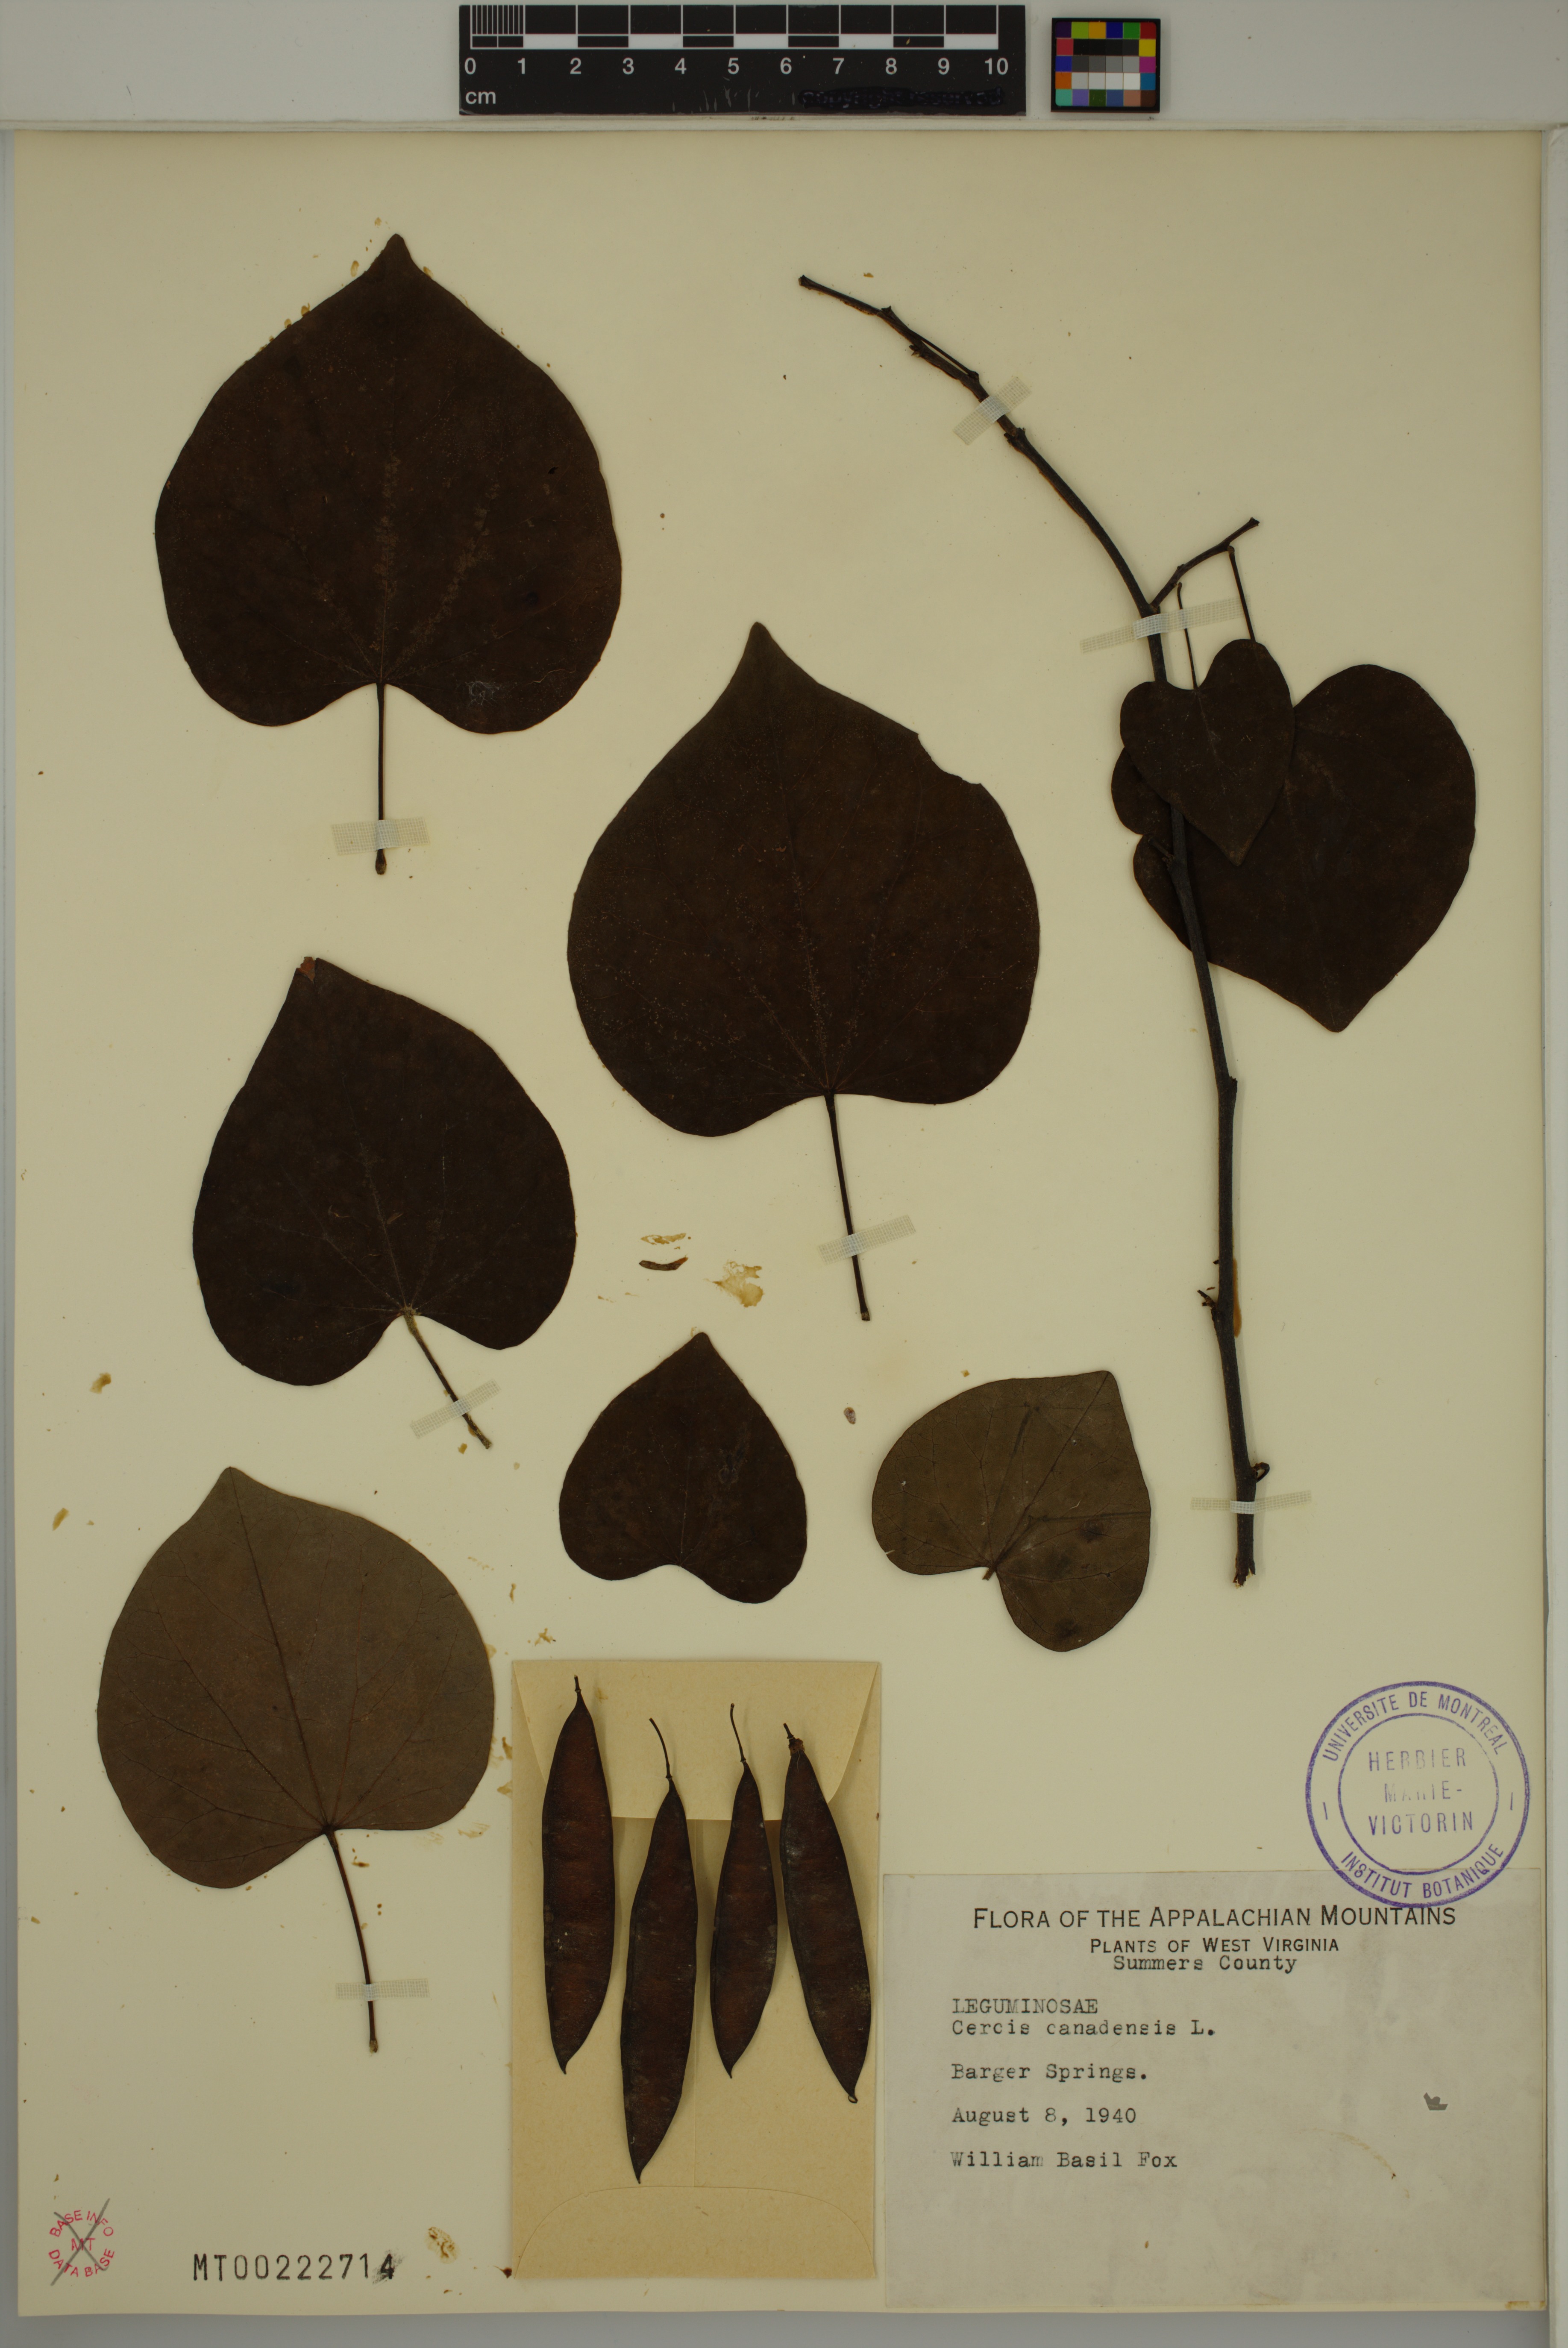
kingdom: Plantae
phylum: Tracheophyta
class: Magnoliopsida
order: Fabales
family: Fabaceae
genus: Cercis
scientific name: Cercis canadensis
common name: Eastern redbud
